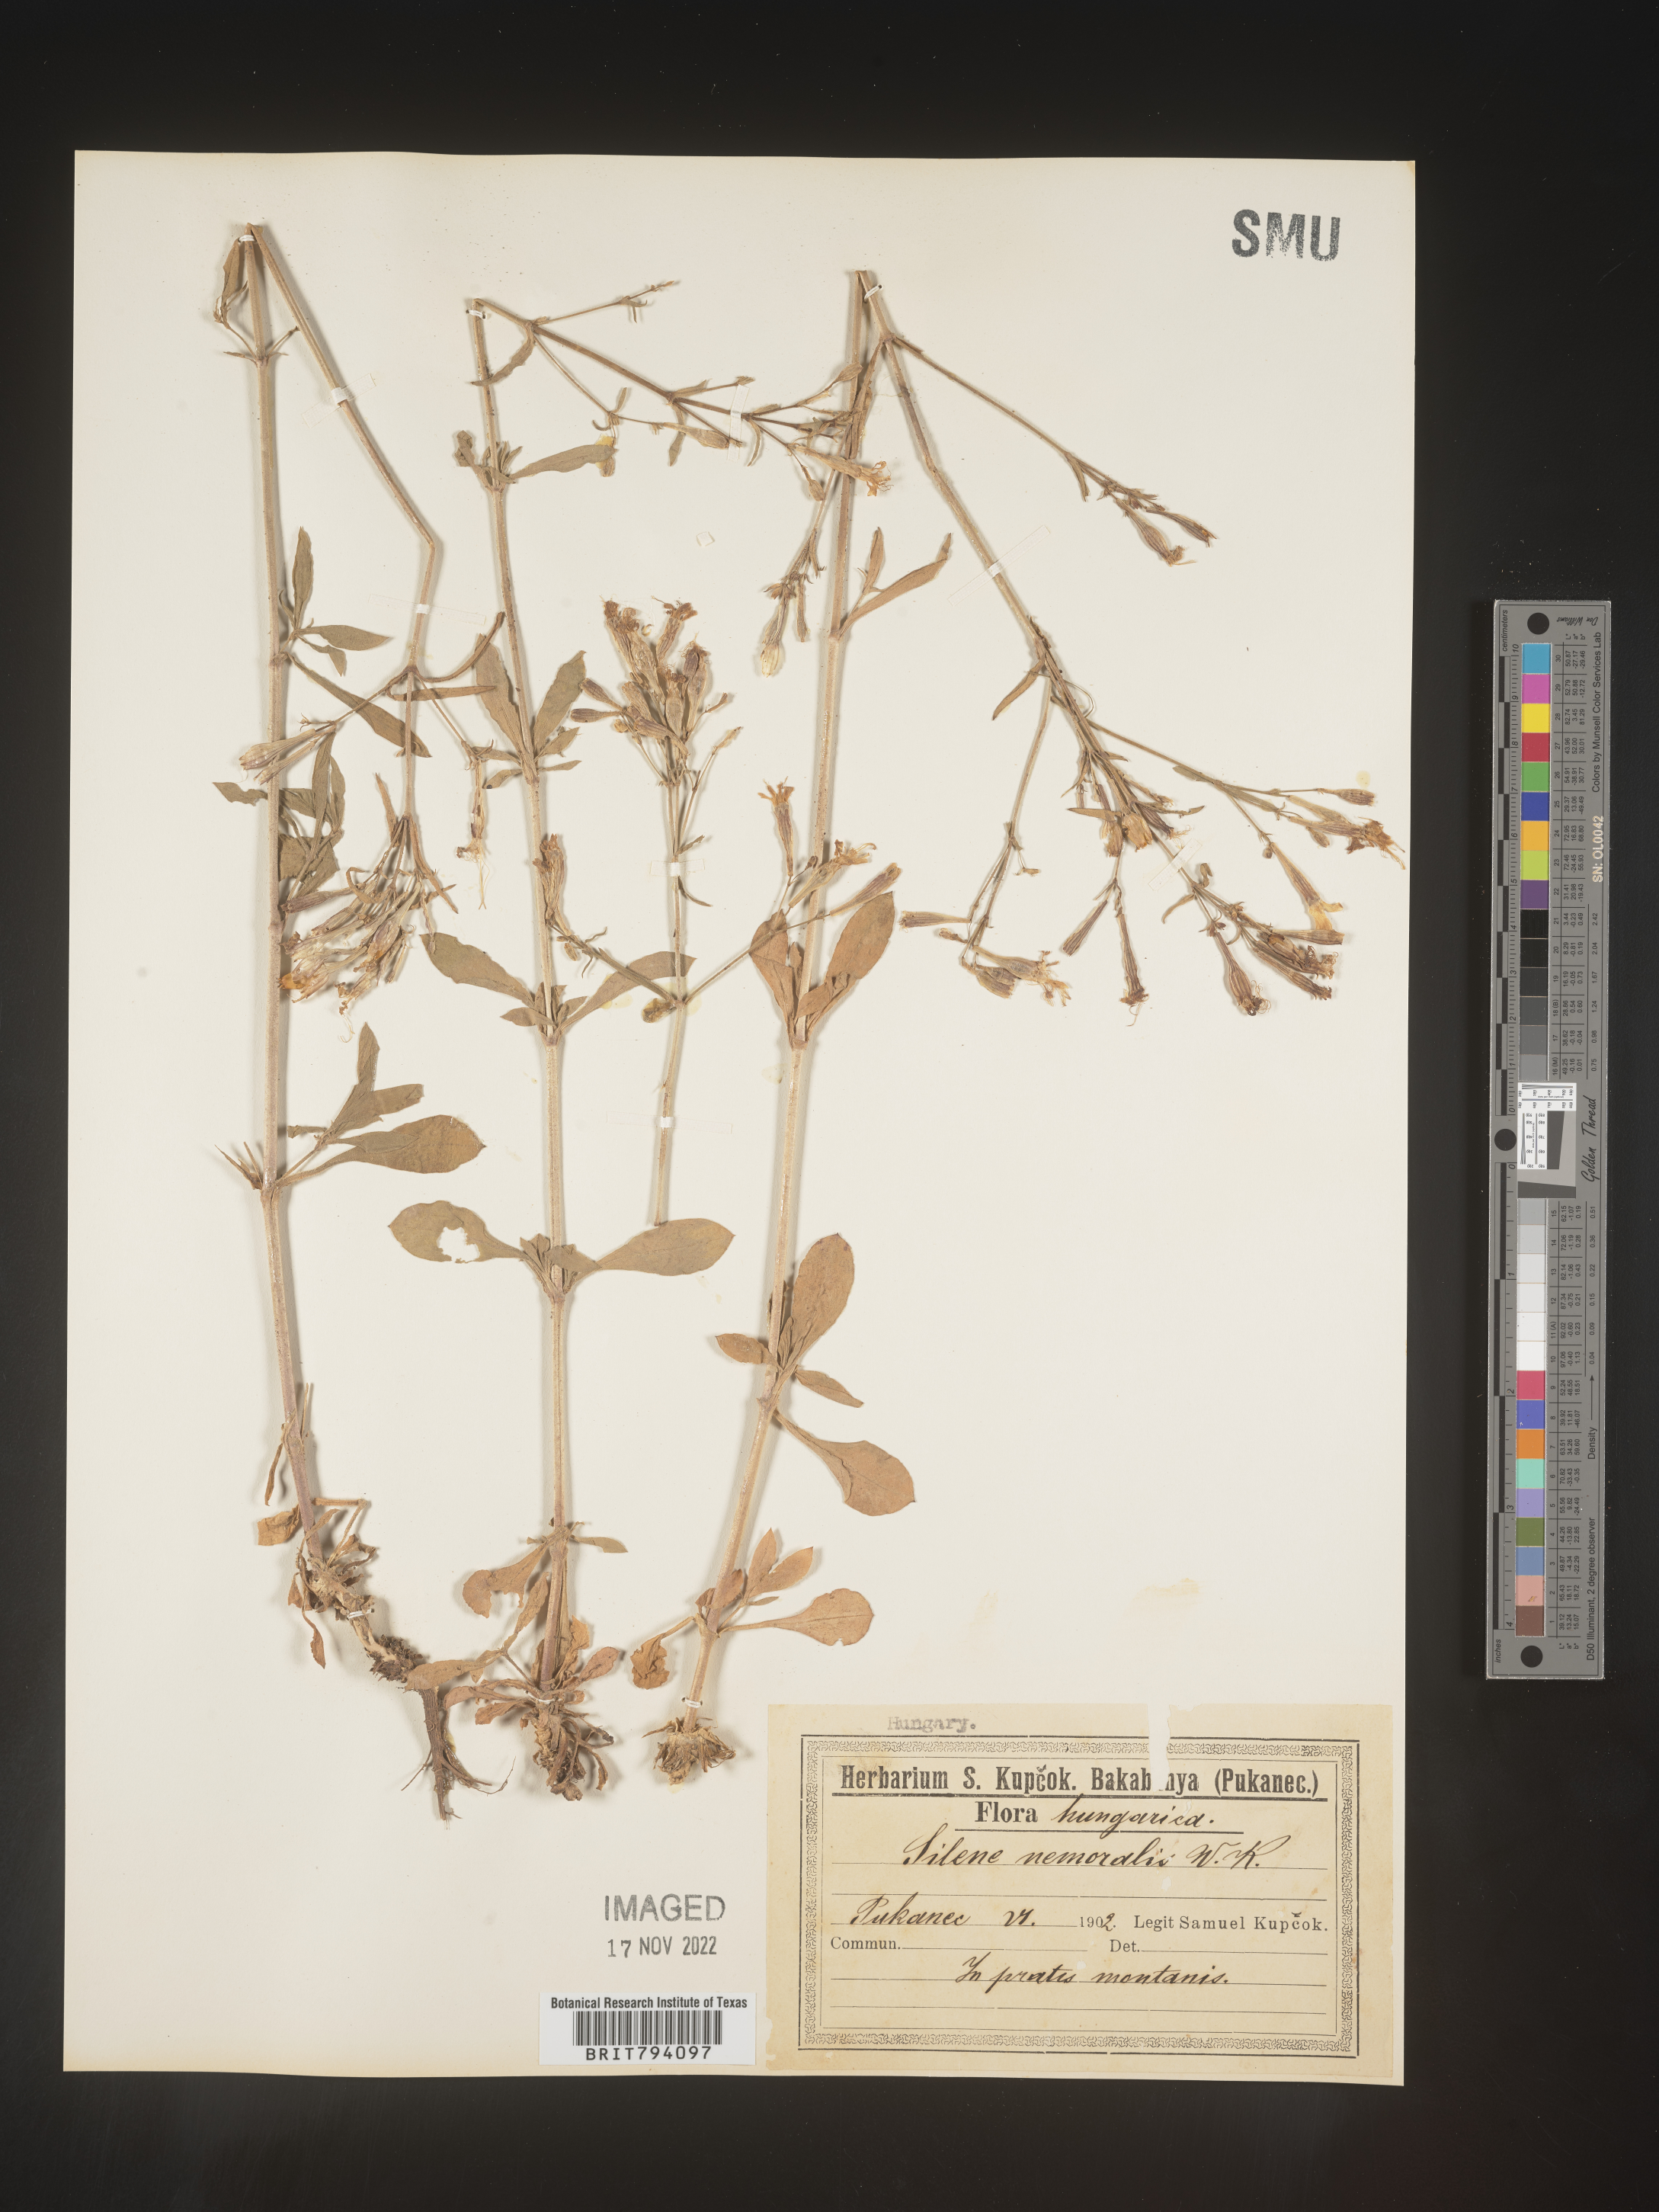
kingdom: Plantae
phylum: Tracheophyta
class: Magnoliopsida
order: Caryophyllales
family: Caryophyllaceae
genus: Silene
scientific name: Silene nemoralis
